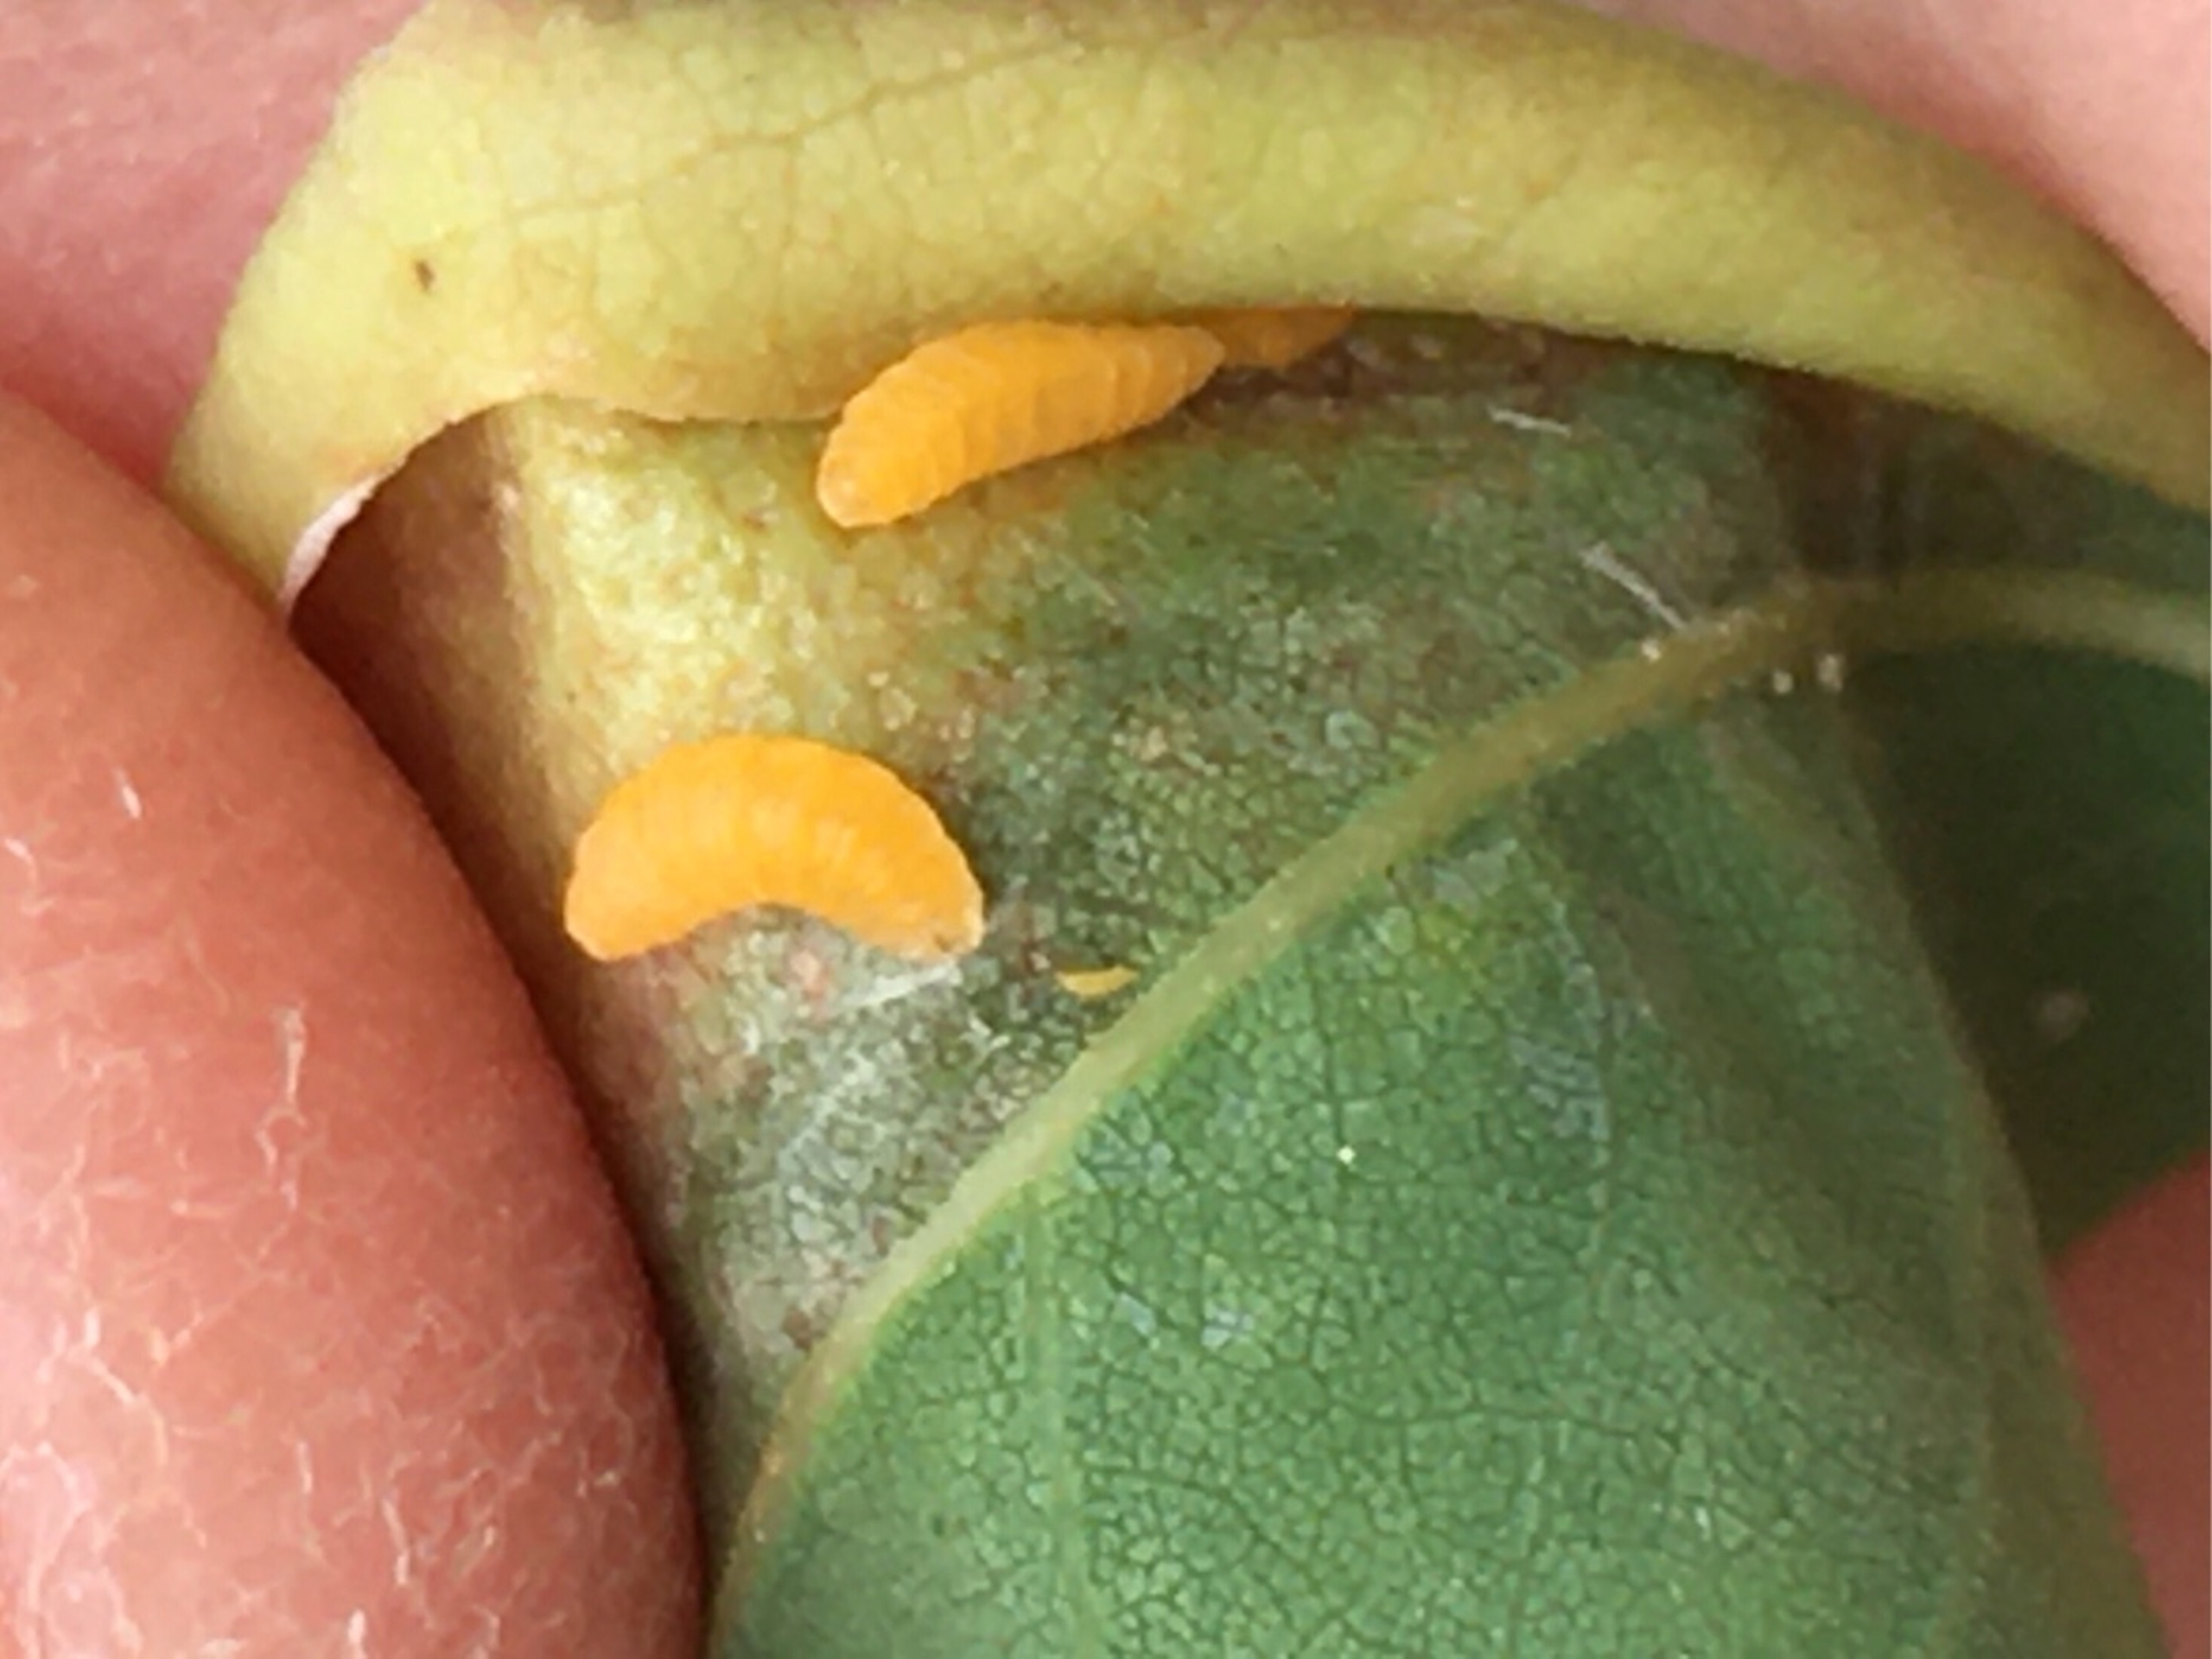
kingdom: Animalia
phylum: Arthropoda
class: Insecta
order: Diptera
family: Cecidomyiidae
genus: Obolodiplosis
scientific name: Obolodiplosis robiniae
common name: Robiniegalmyg
